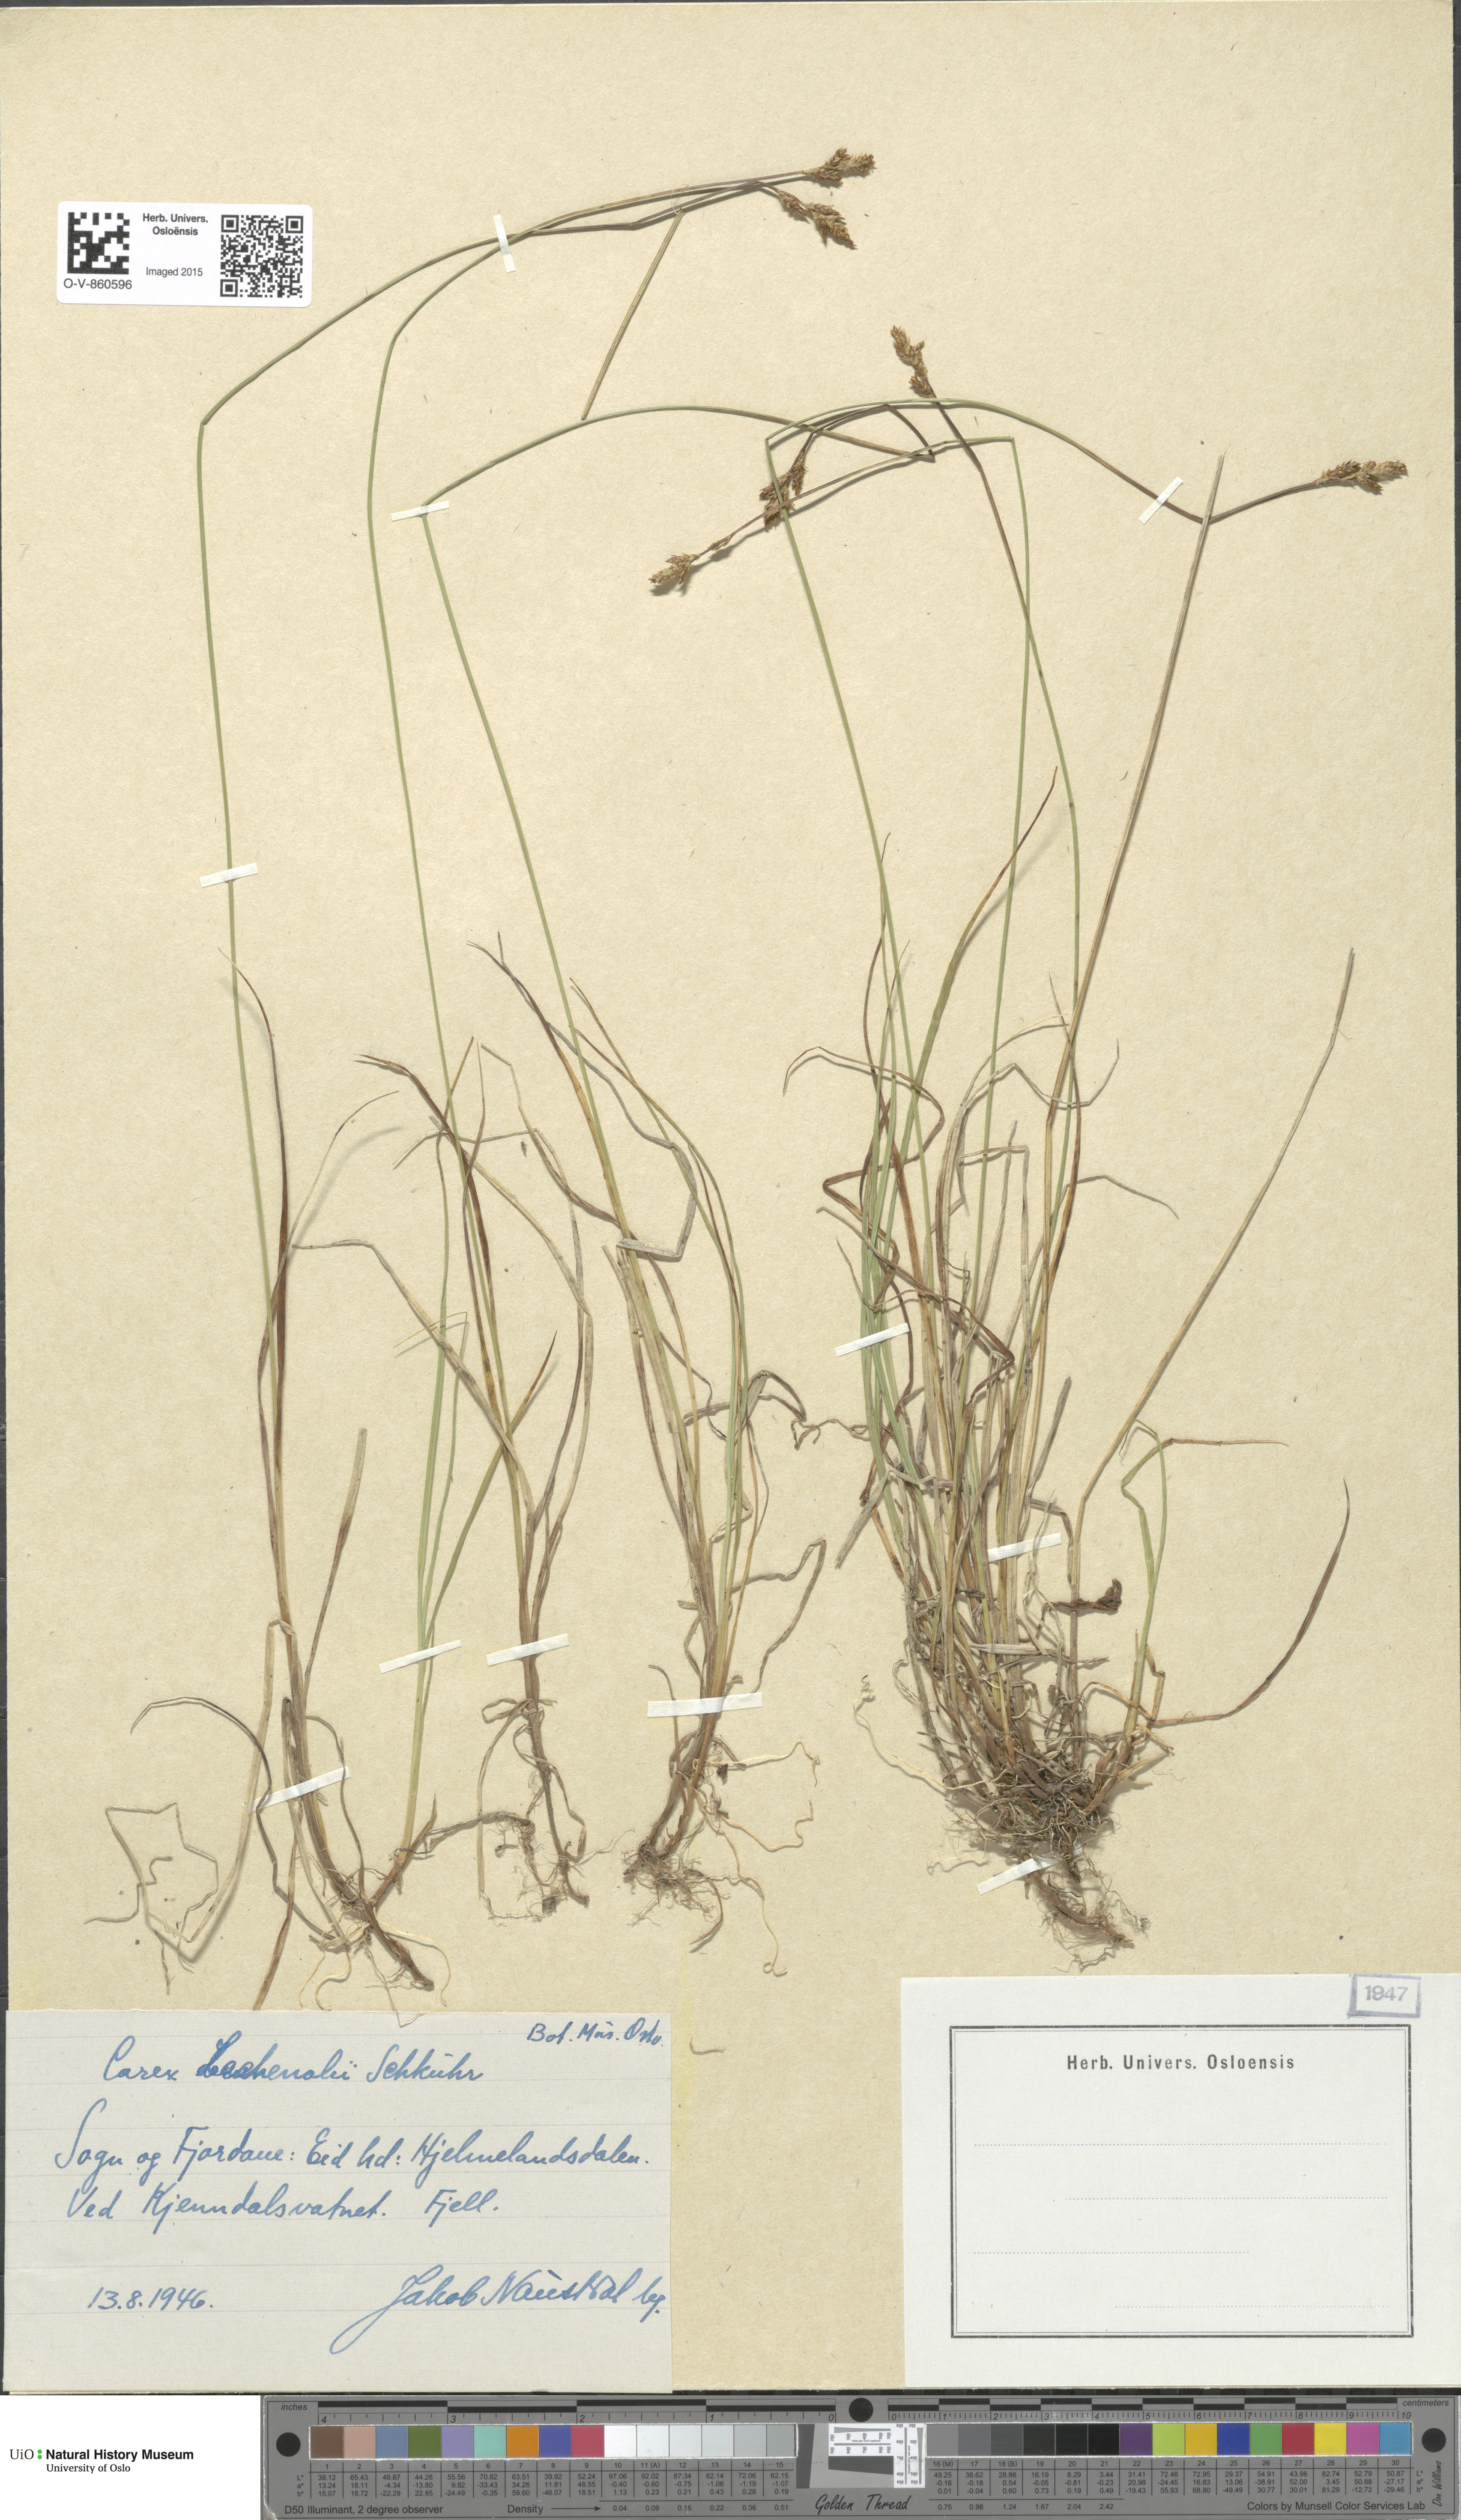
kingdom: Plantae
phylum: Tracheophyta
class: Liliopsida
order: Poales
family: Cyperaceae
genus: Carex
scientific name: Carex lachenalii
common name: Hare's-foot sedge
